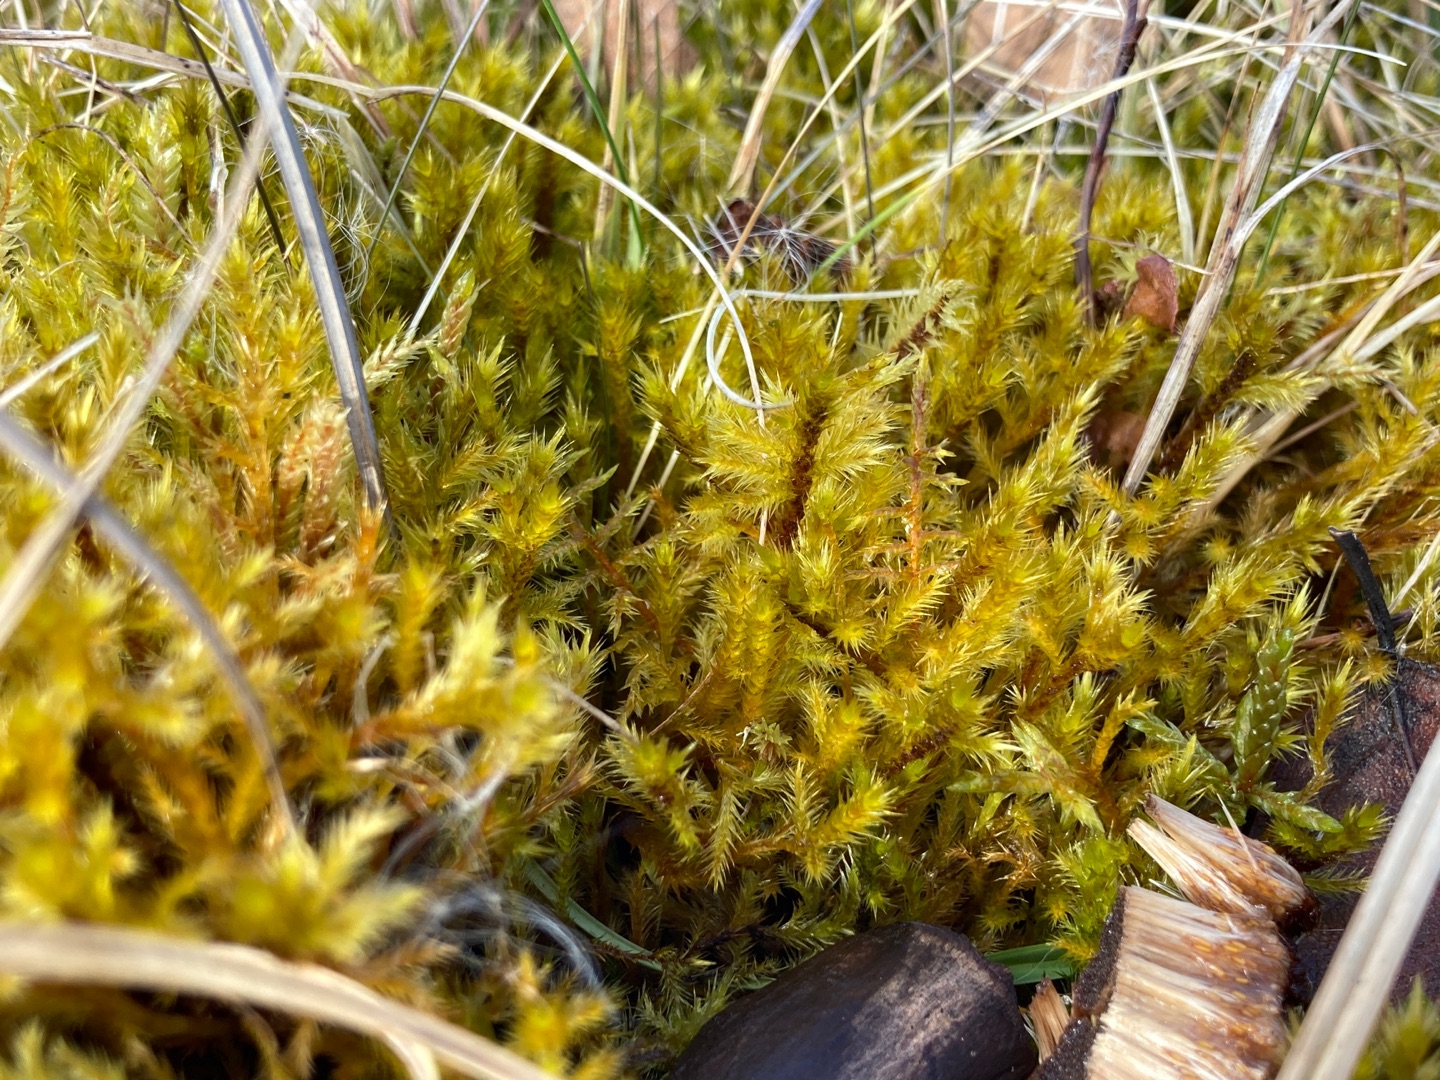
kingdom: Plantae
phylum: Bryophyta
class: Bryopsida
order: Hypnales
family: Amblystegiaceae
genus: Tomentypnum
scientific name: Tomentypnum nitens
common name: Glinsende kærmos
